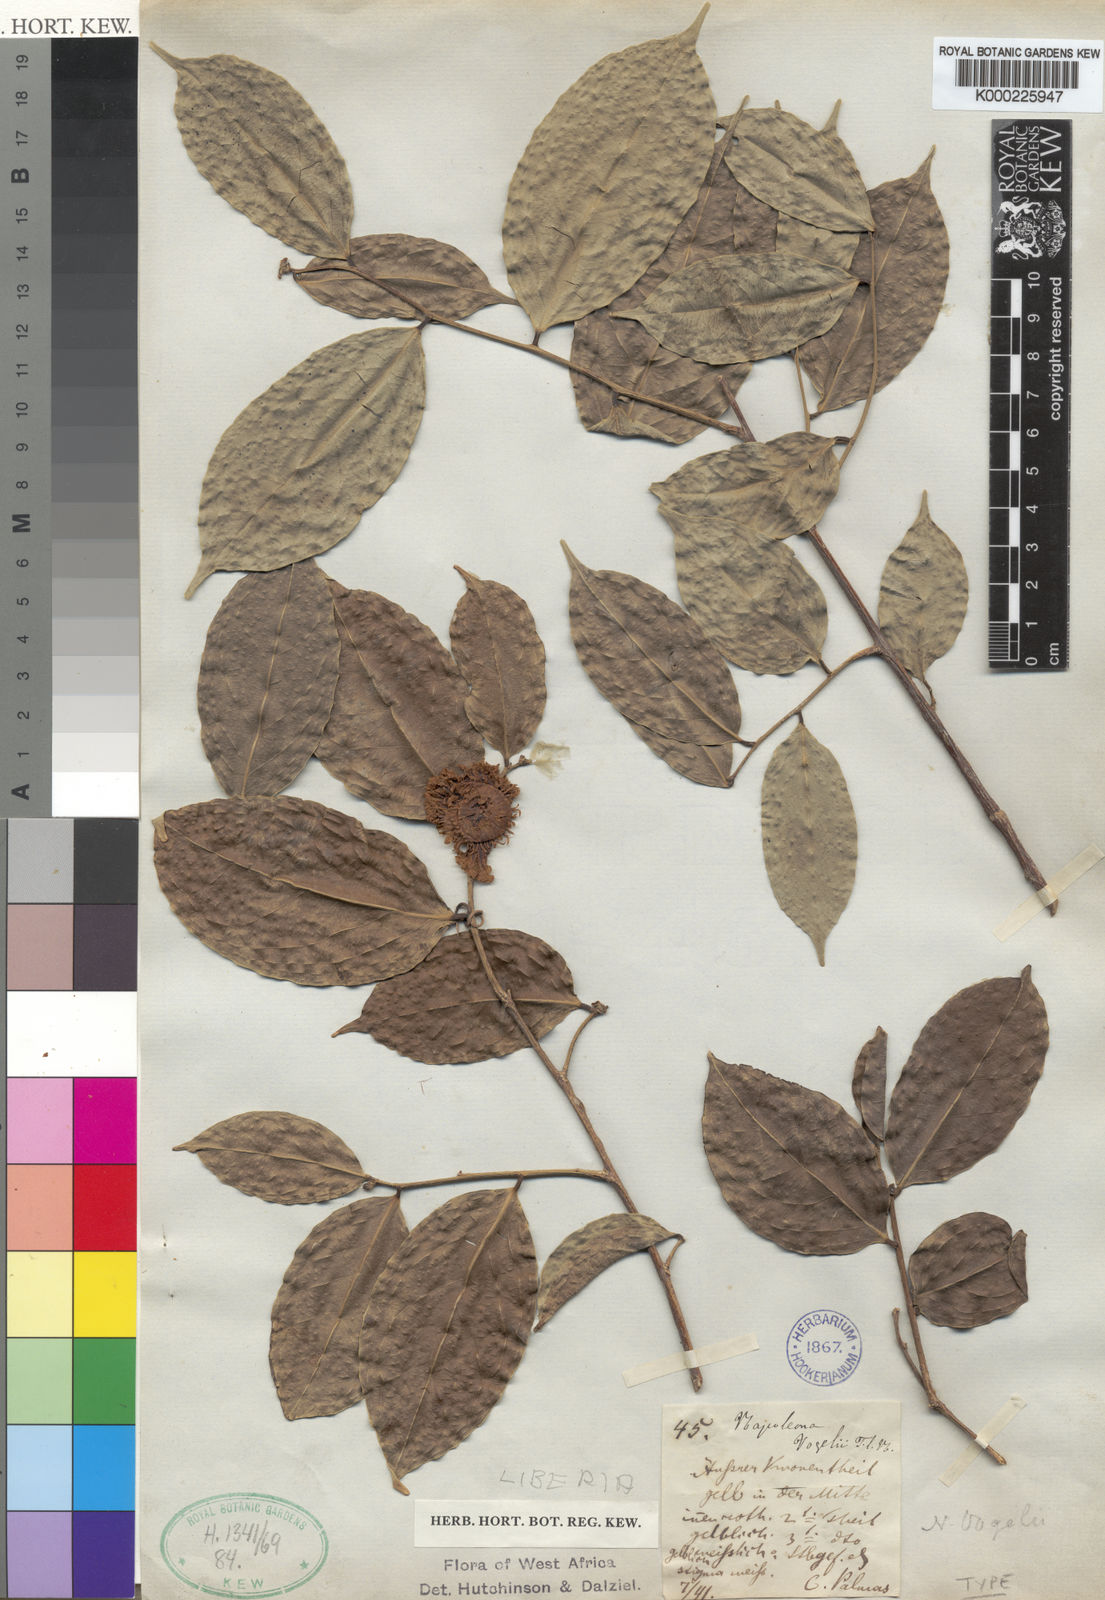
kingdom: Plantae
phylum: Tracheophyta
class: Magnoliopsida
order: Ericales
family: Lecythidaceae
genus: Napoleonaea
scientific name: Napoleonaea vogelii
